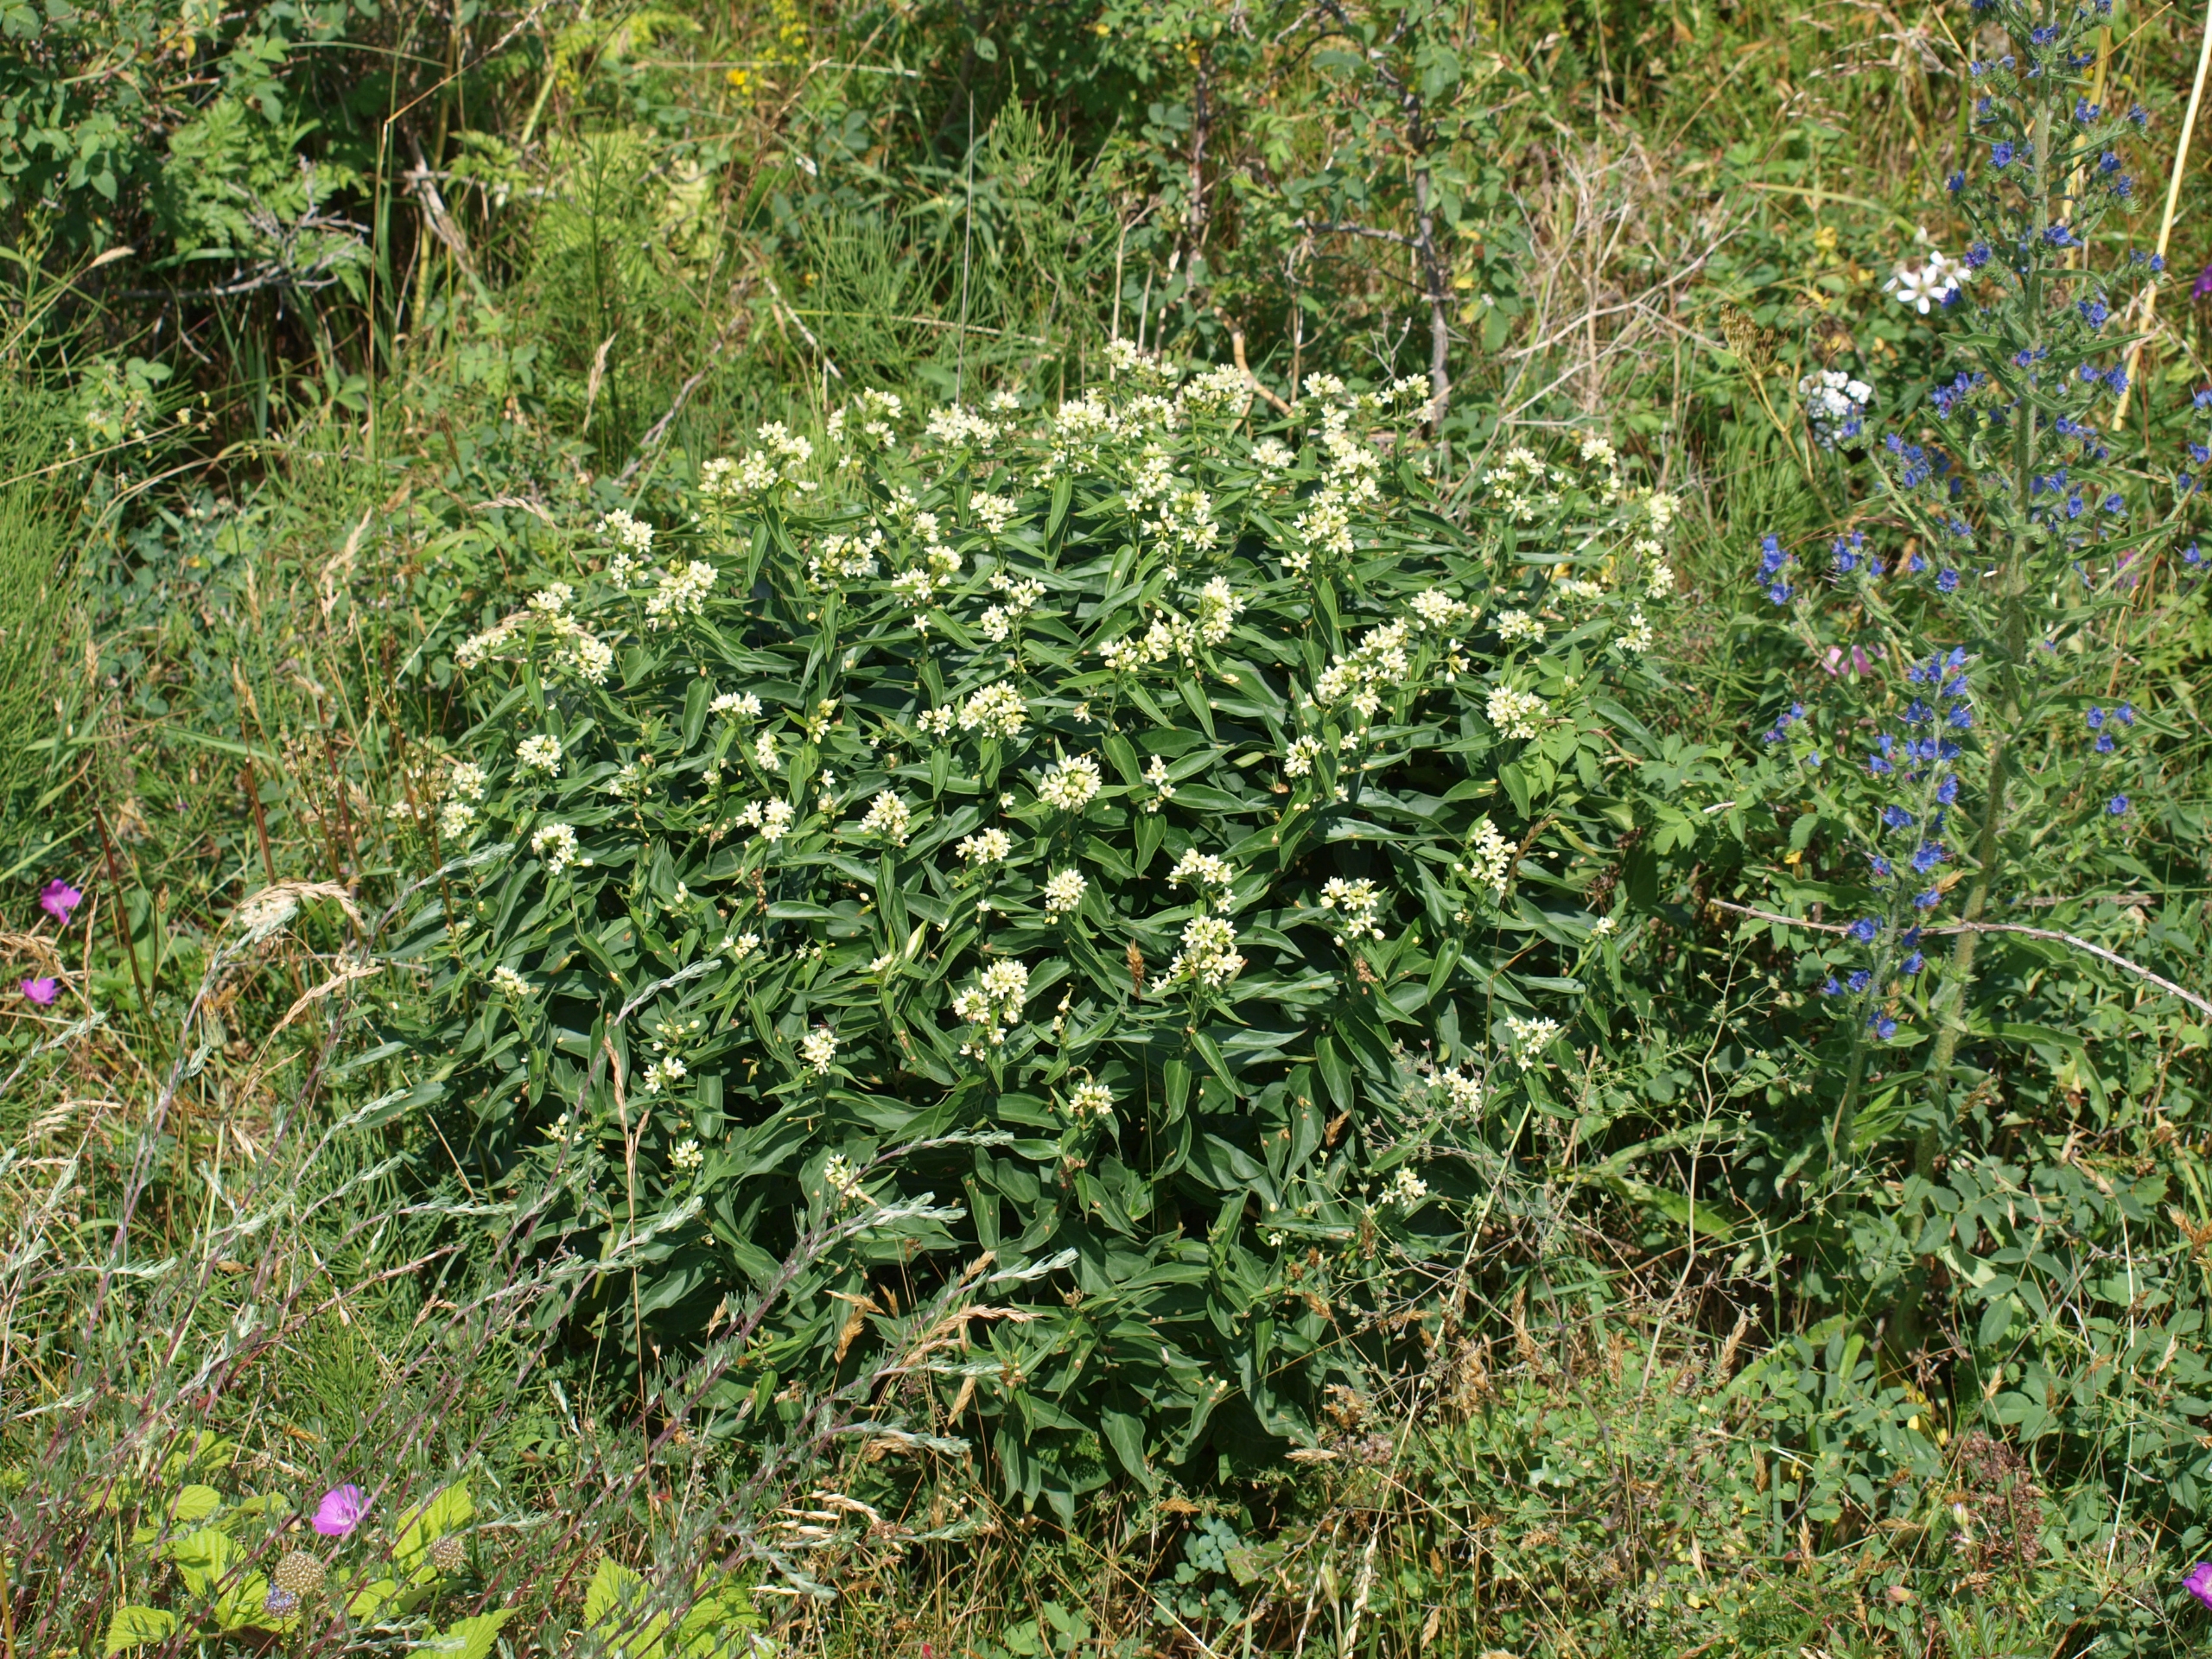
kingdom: Plantae
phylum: Tracheophyta
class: Magnoliopsida
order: Gentianales
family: Apocynaceae
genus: Vincetoxicum
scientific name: Vincetoxicum hirundinaria
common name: Svalerod
